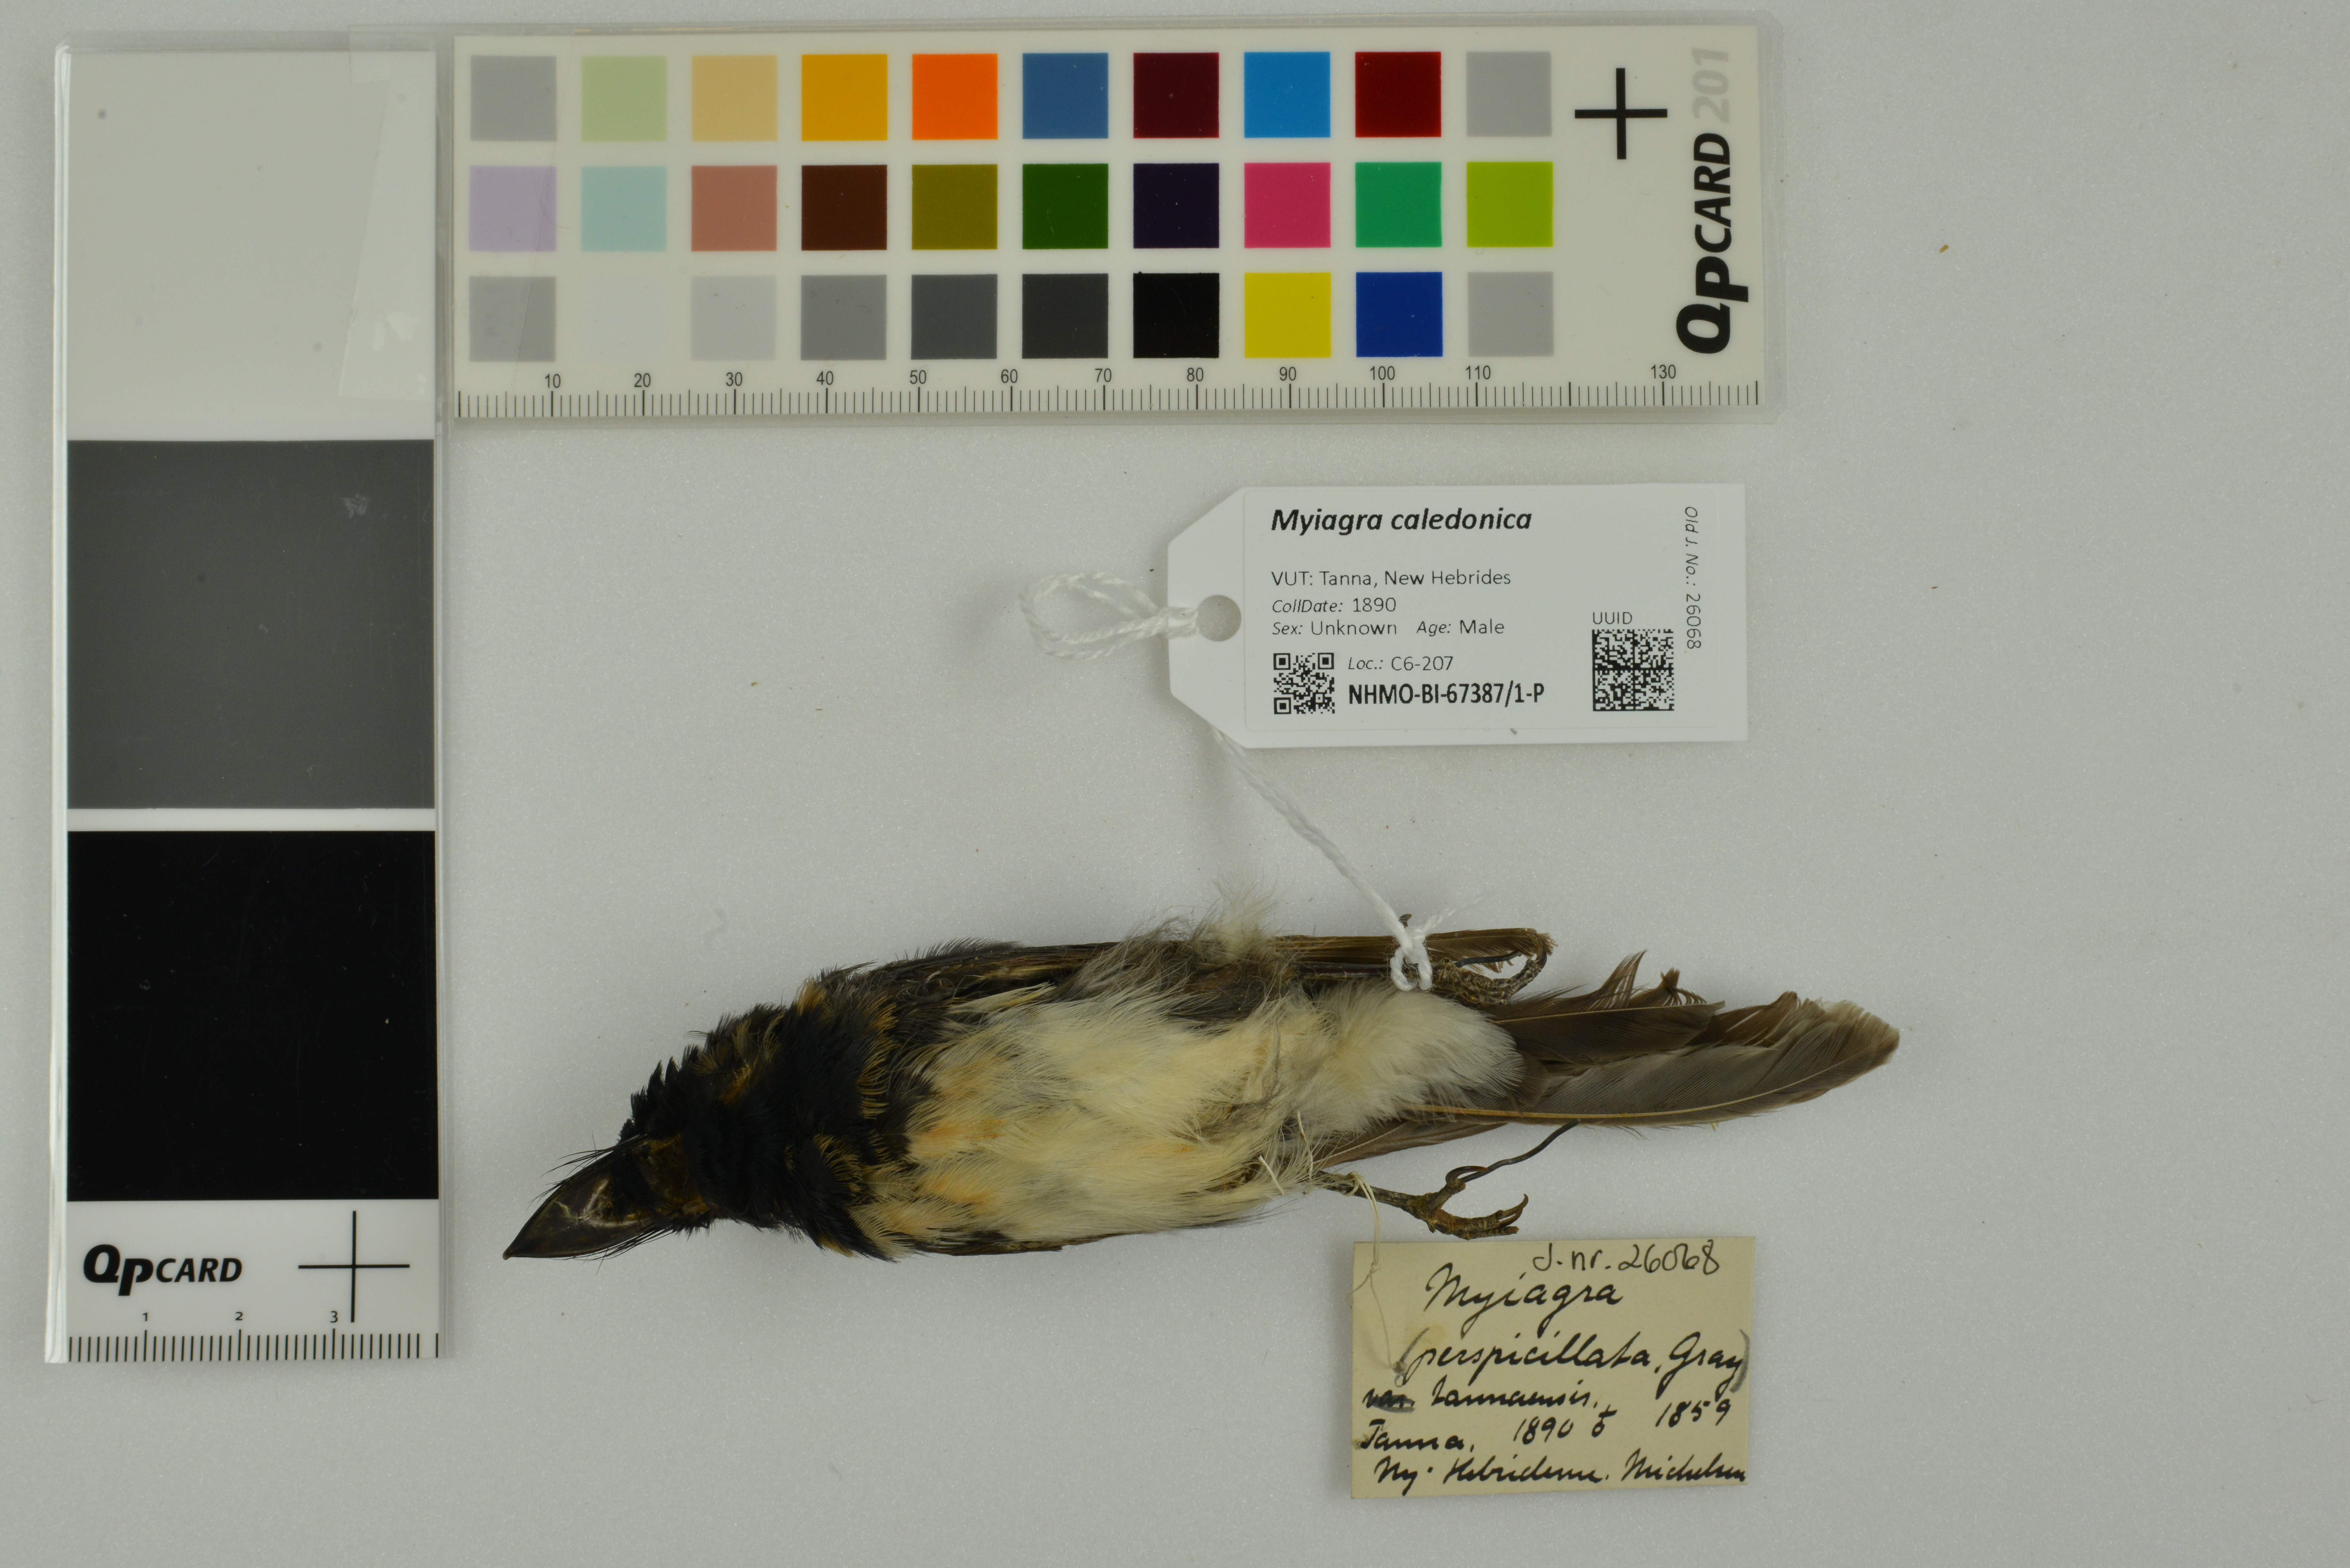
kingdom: Animalia
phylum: Chordata
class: Aves
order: Passeriformes
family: Monarchidae
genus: Myiagra
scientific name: Myiagra caledonica
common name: Melanesian flycatcher
